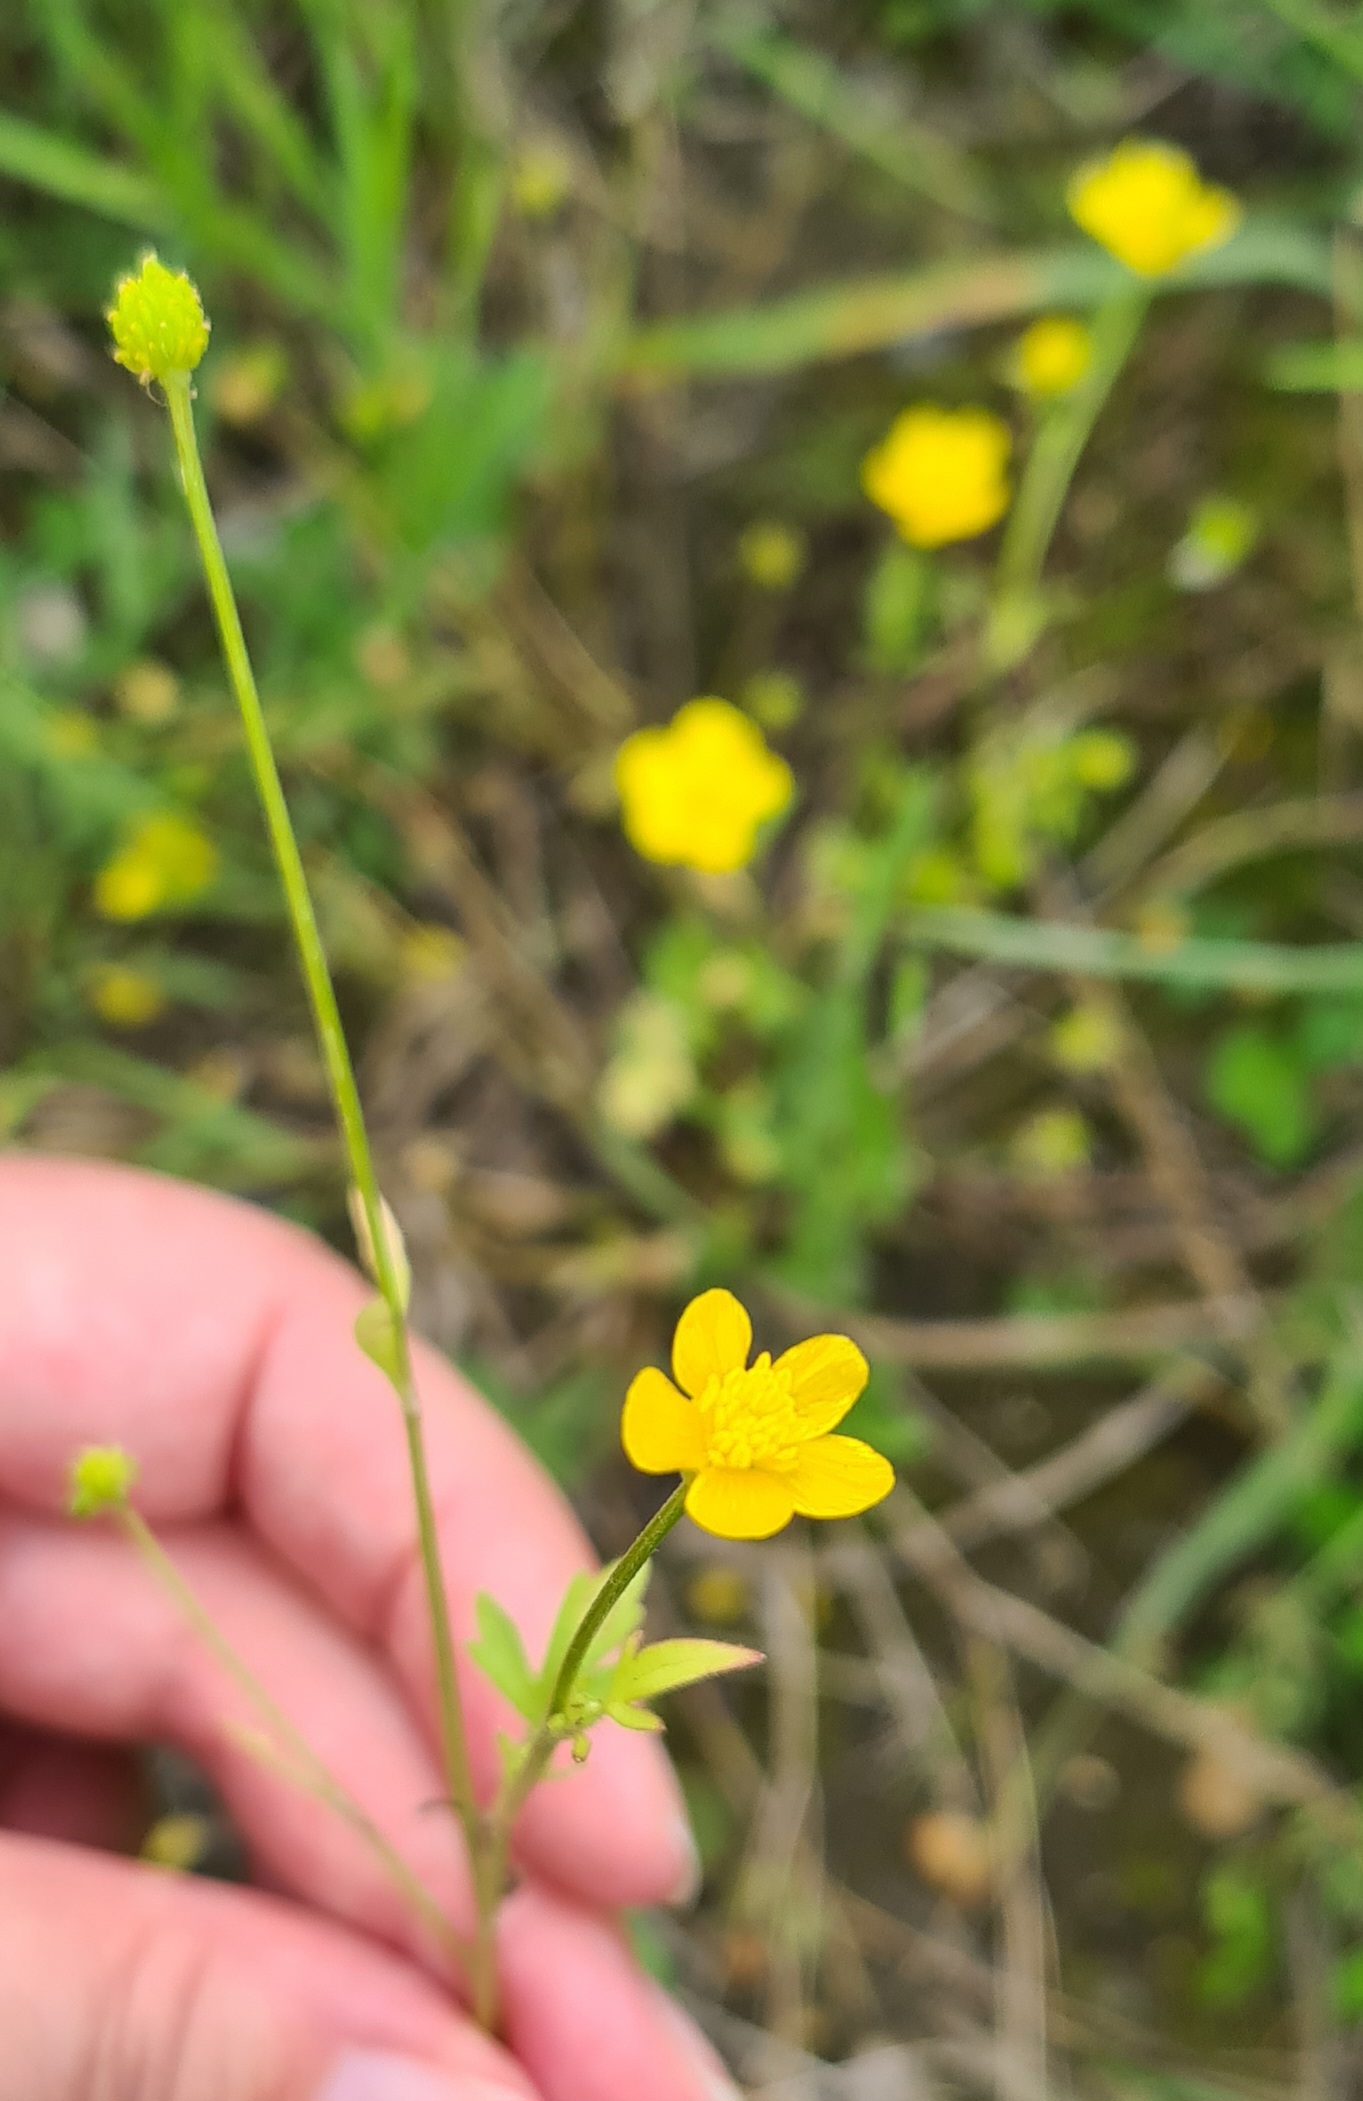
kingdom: Plantae
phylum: Tracheophyta
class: Magnoliopsida
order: Ranunculales
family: Ranunculaceae
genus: Ranunculus
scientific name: Ranunculus sardous
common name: Stivhåret ranunkel
